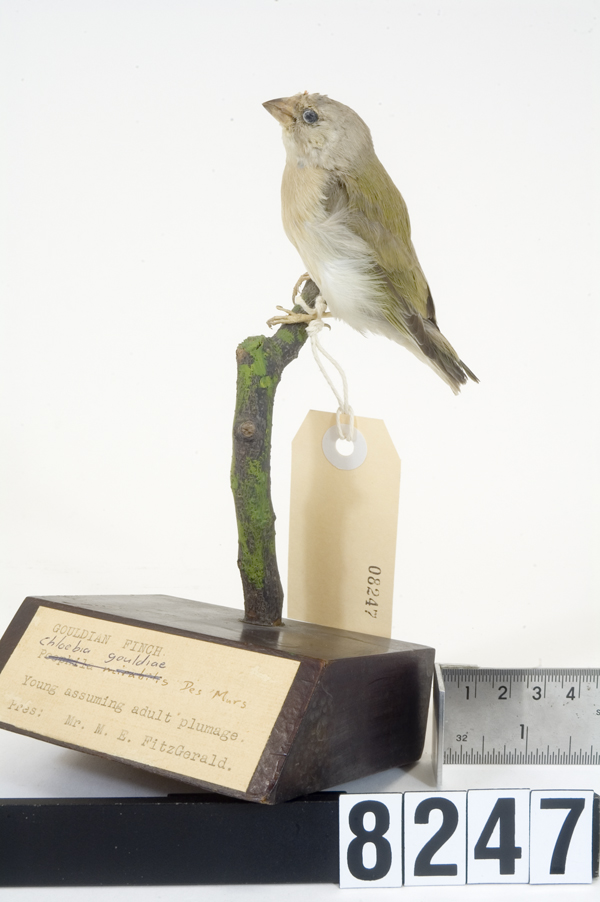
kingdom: Animalia
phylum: Chordata
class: Aves
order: Passeriformes
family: Estrildidae
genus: Erythrura
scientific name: Erythrura gouldiae
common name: Gouldian finch
